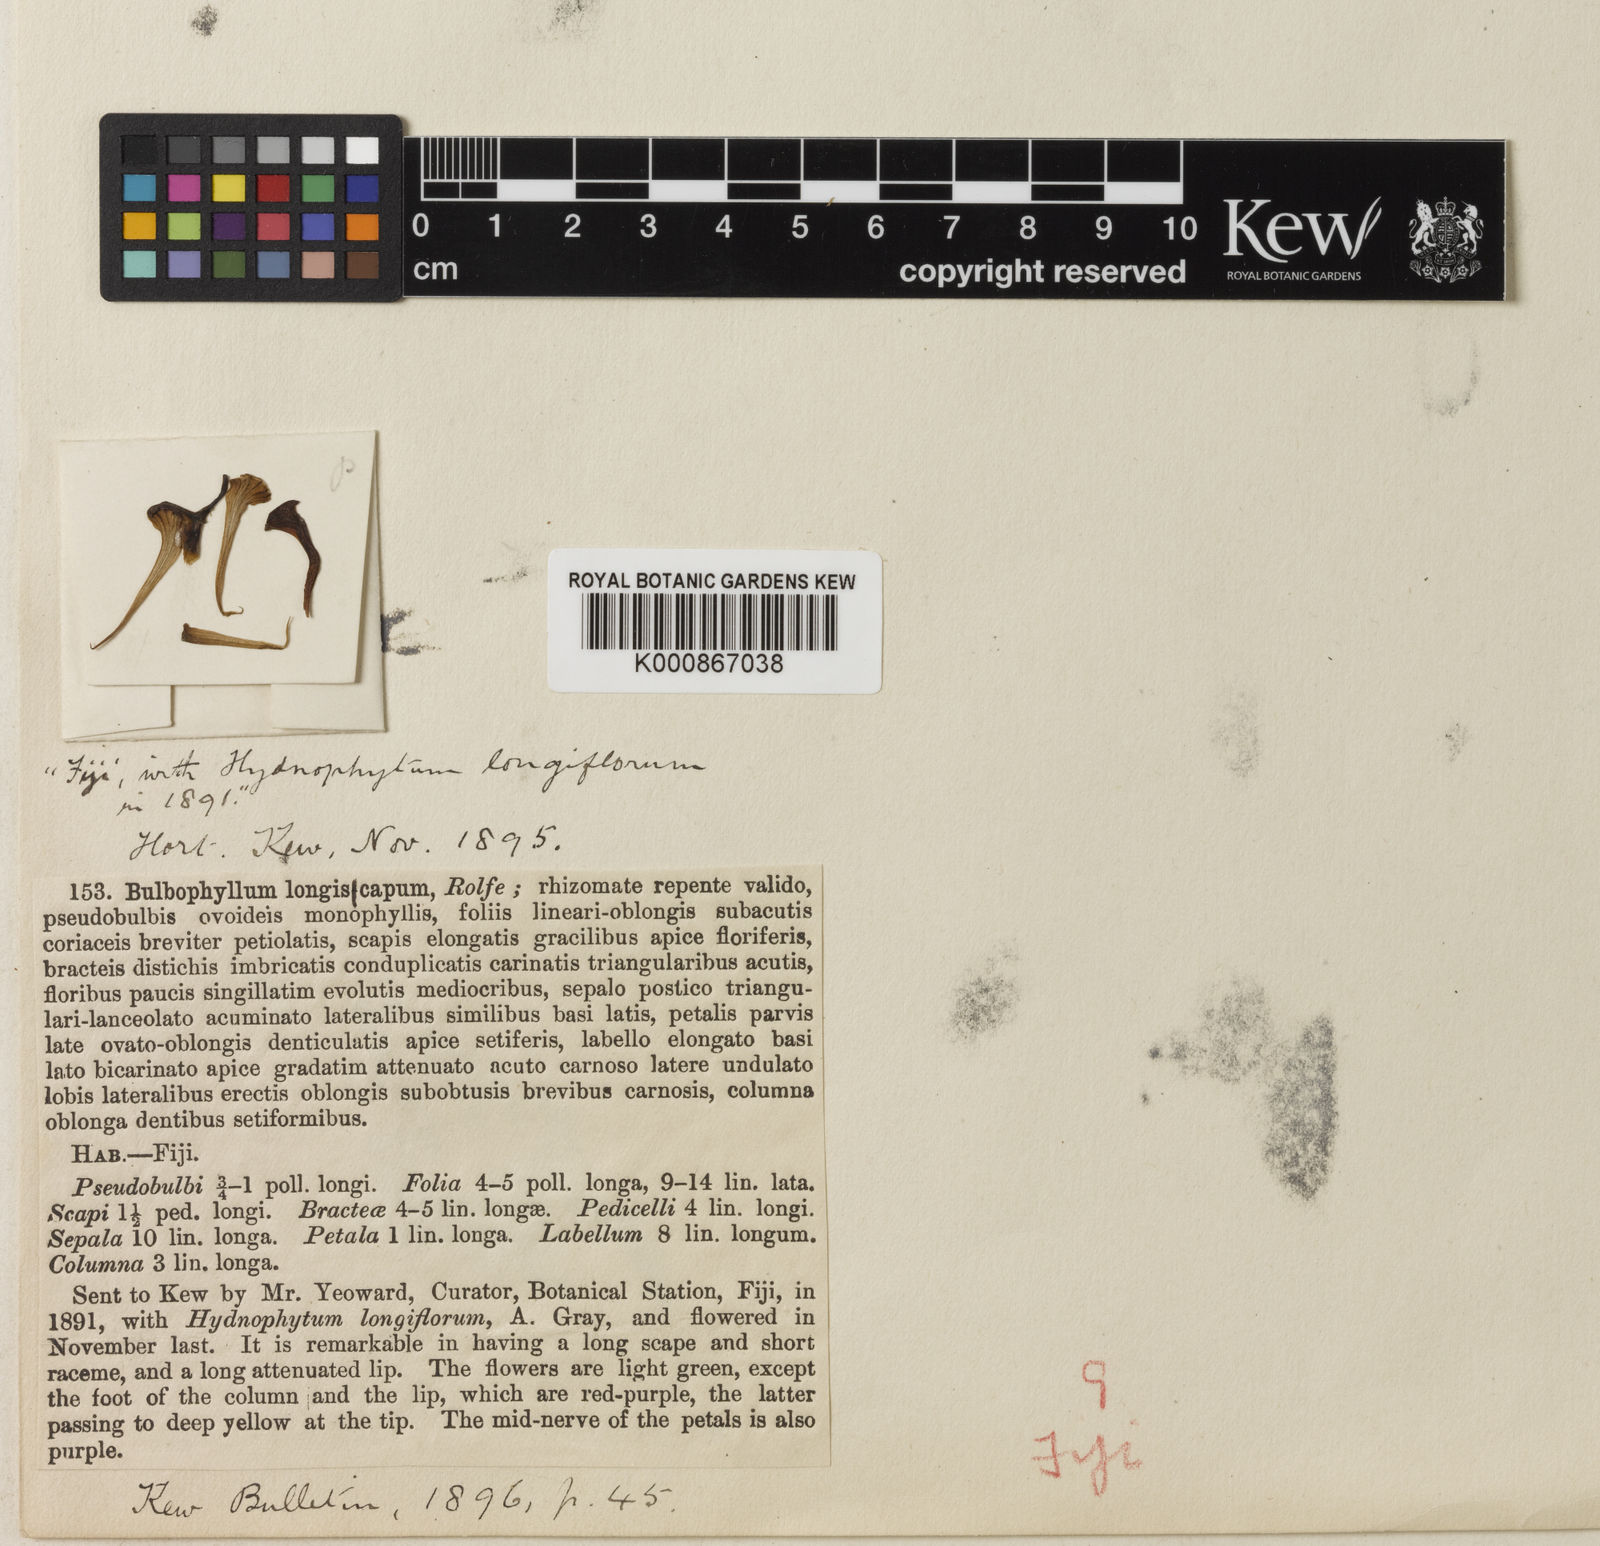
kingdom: Plantae
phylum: Tracheophyta
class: Liliopsida
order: Asparagales
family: Orchidaceae
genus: Bulbophyllum
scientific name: Bulbophyllum longiscapum
